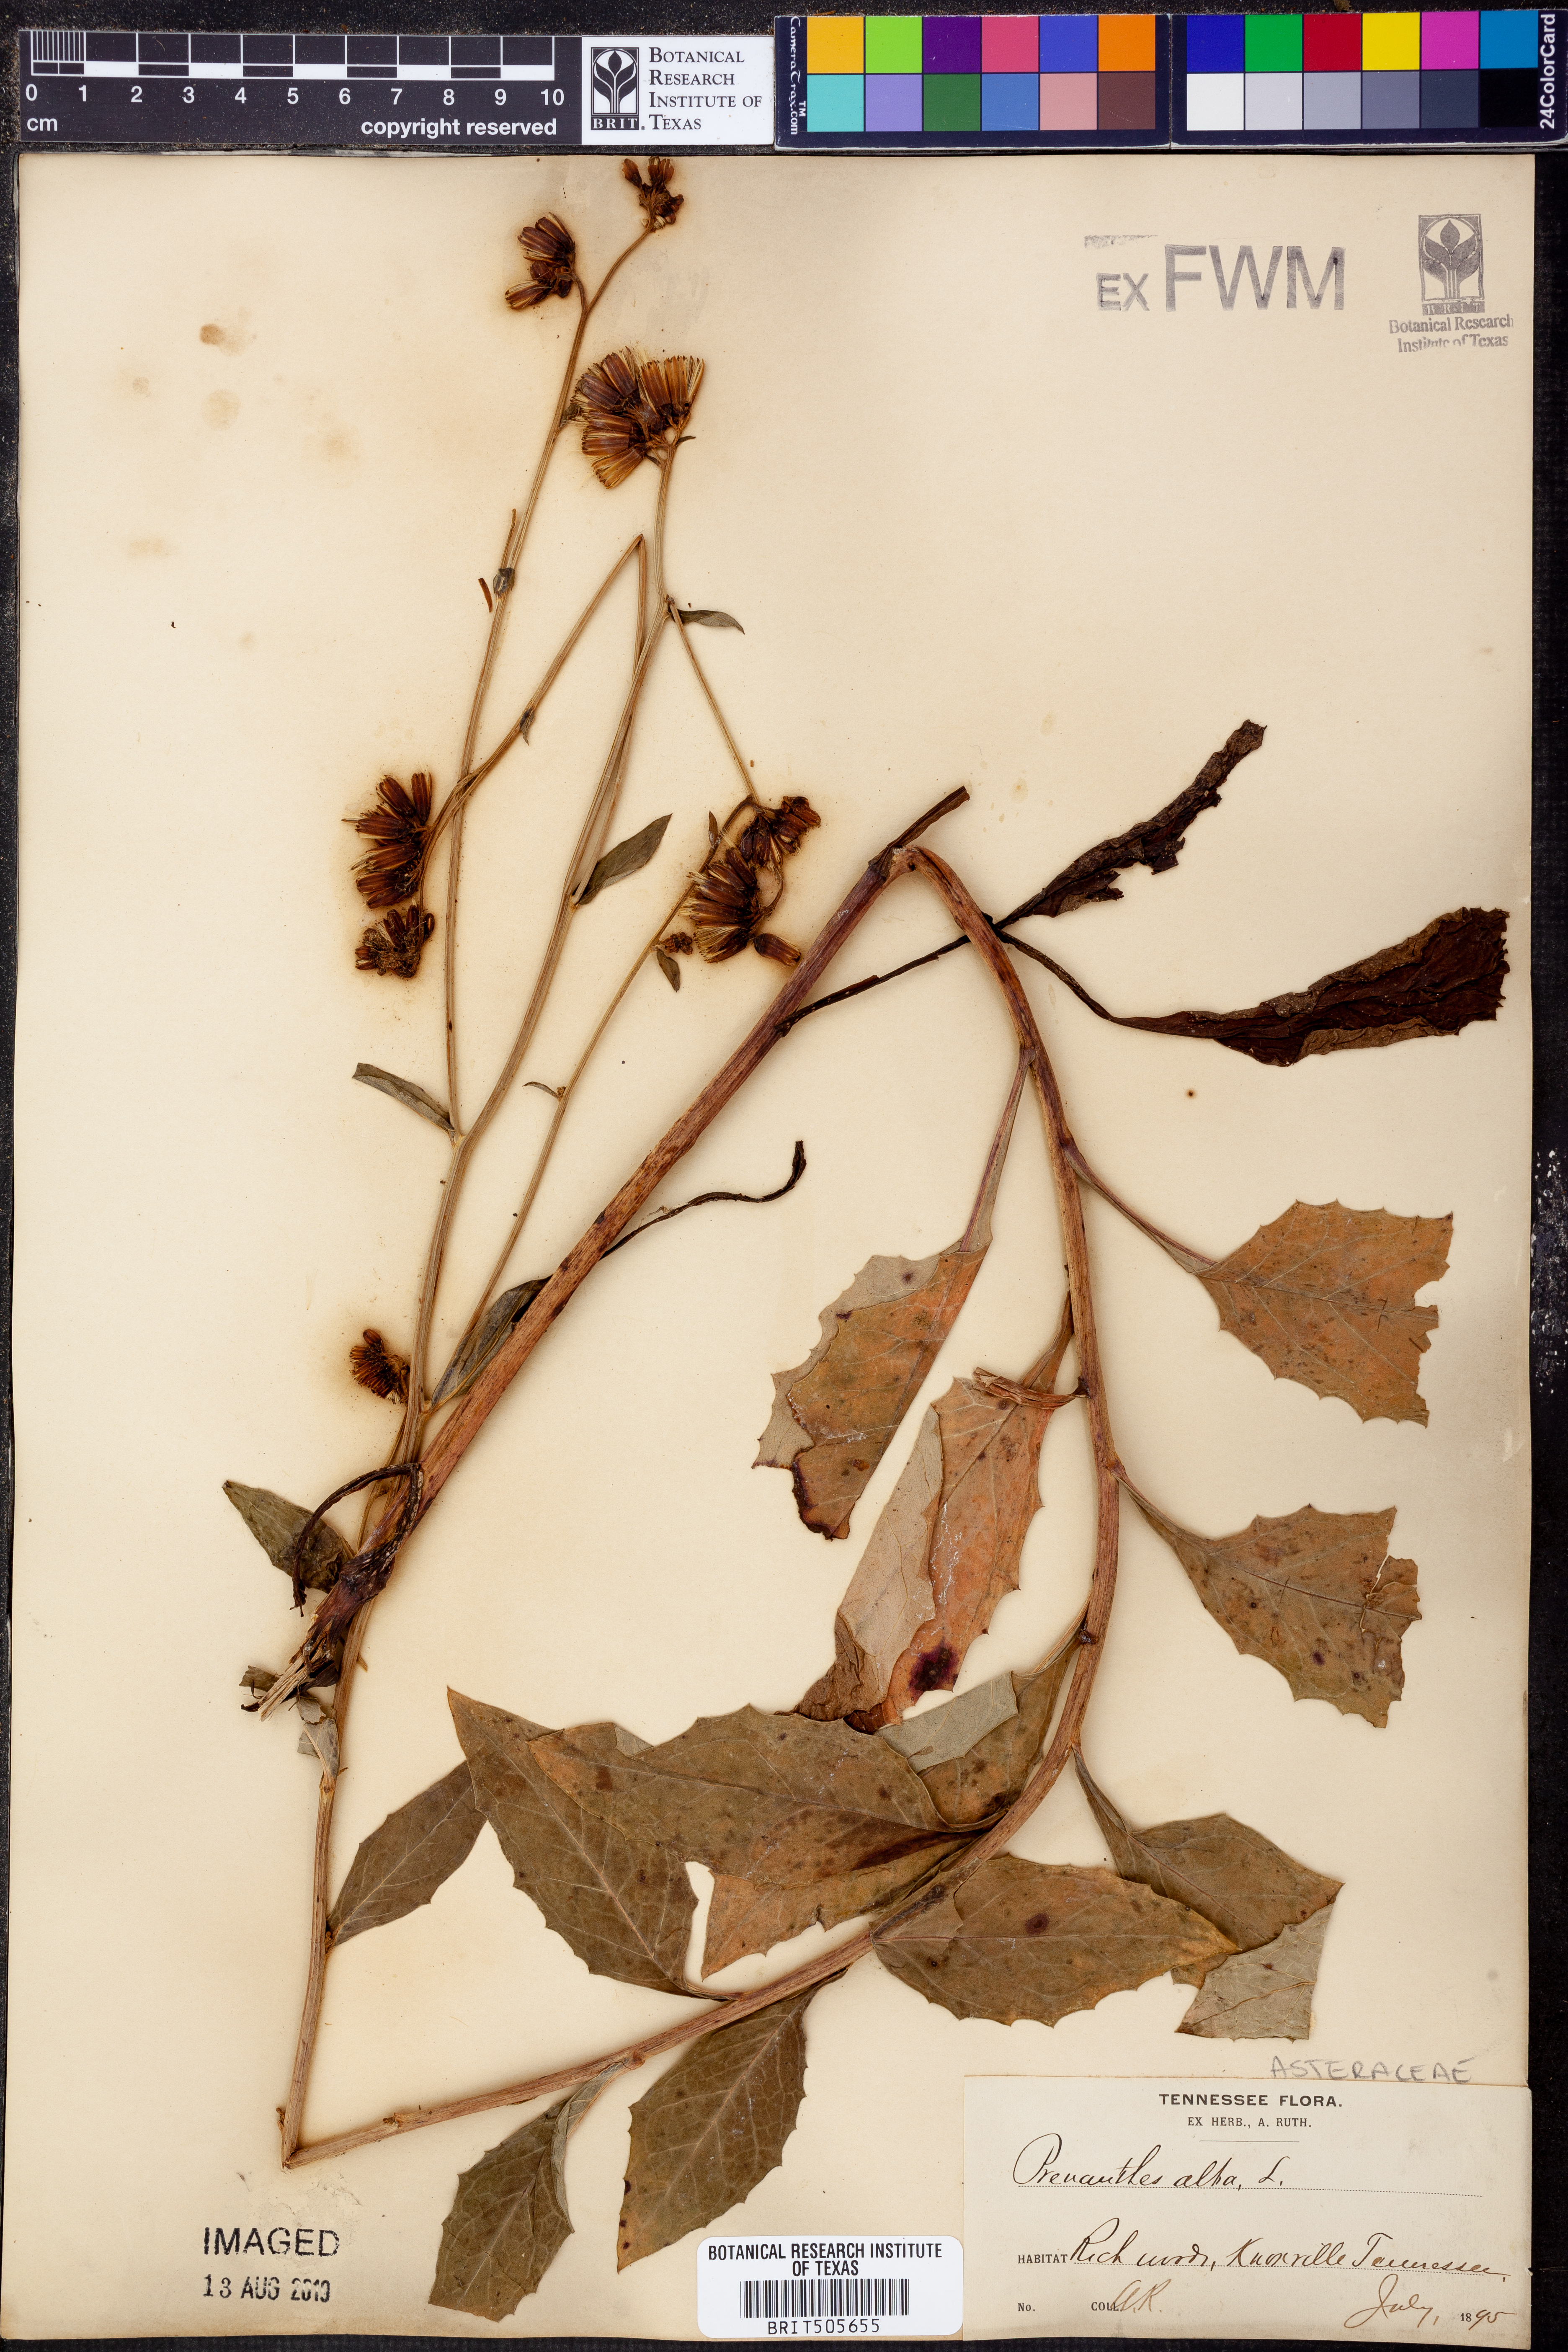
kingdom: Plantae
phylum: Tracheophyta
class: Magnoliopsida
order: Asterales
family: Asteraceae
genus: Nabalus
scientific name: Nabalus albus
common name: White rattlesnakeroot
